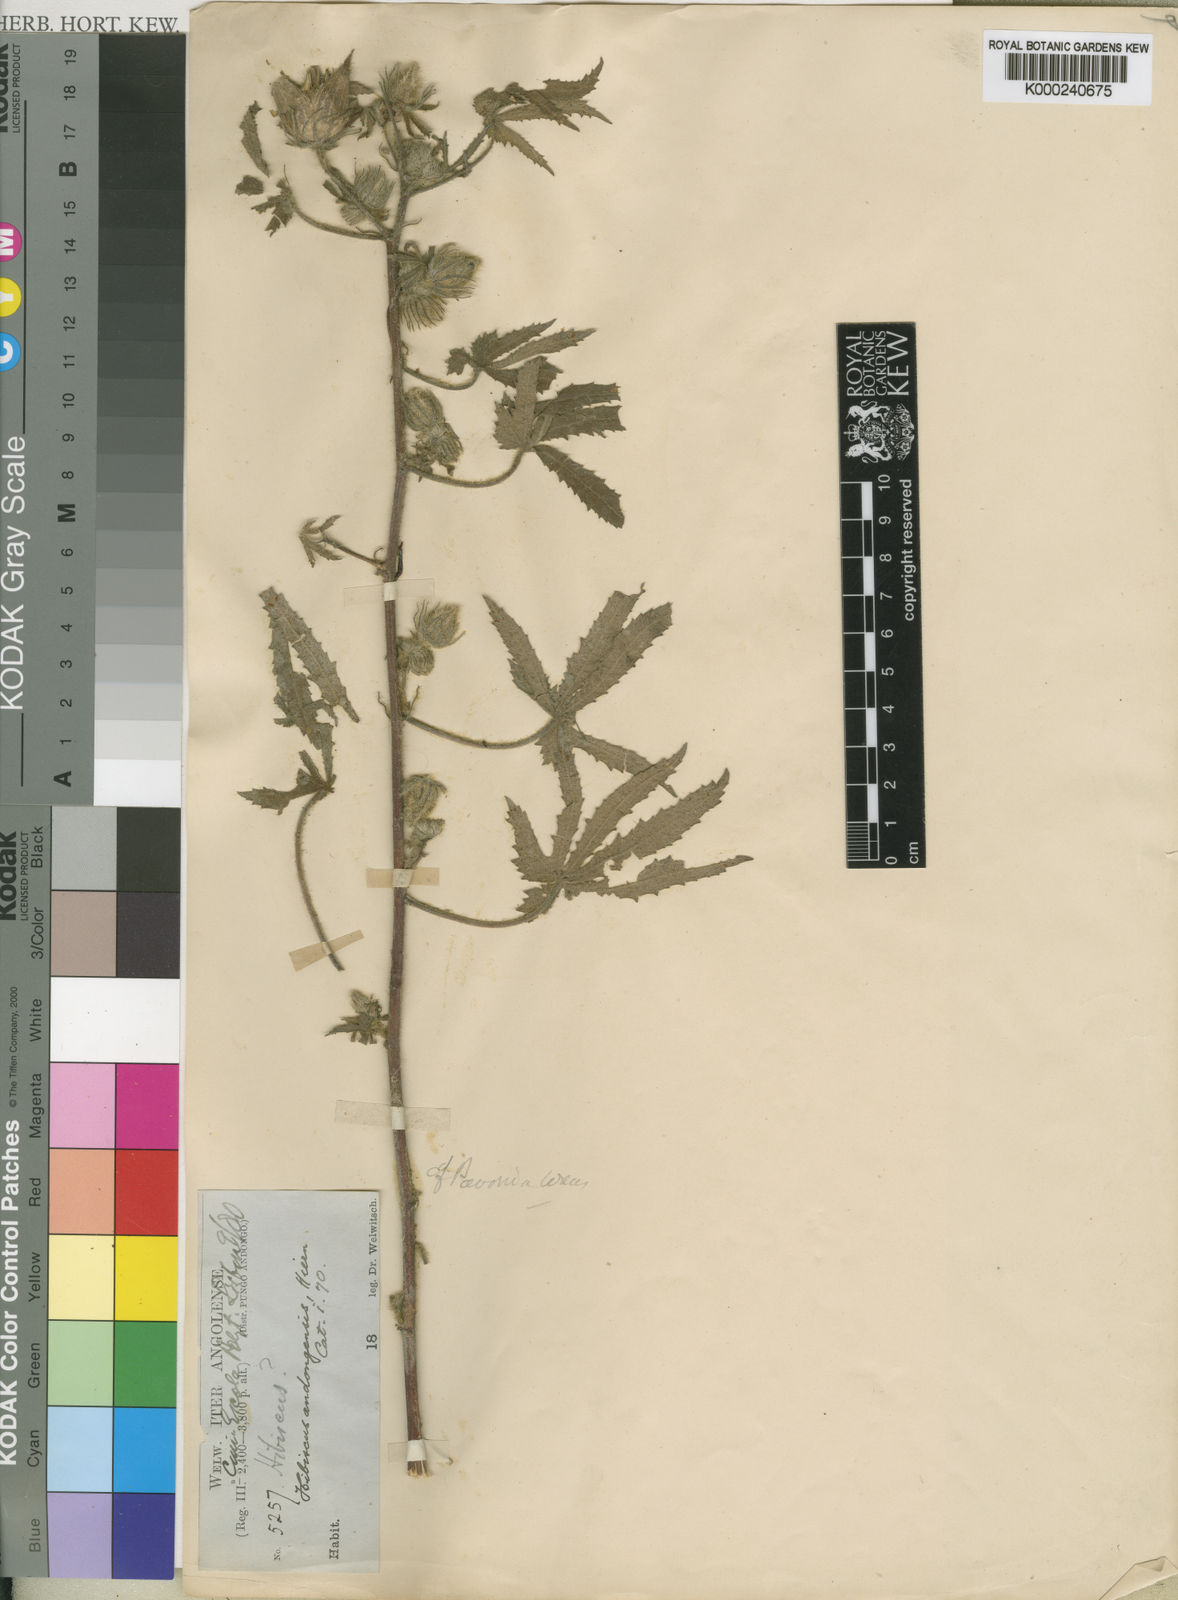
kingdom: Plantae
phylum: Tracheophyta
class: Magnoliopsida
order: Malvales
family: Malvaceae
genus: Hibiscus
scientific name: Hibiscus andongensis
